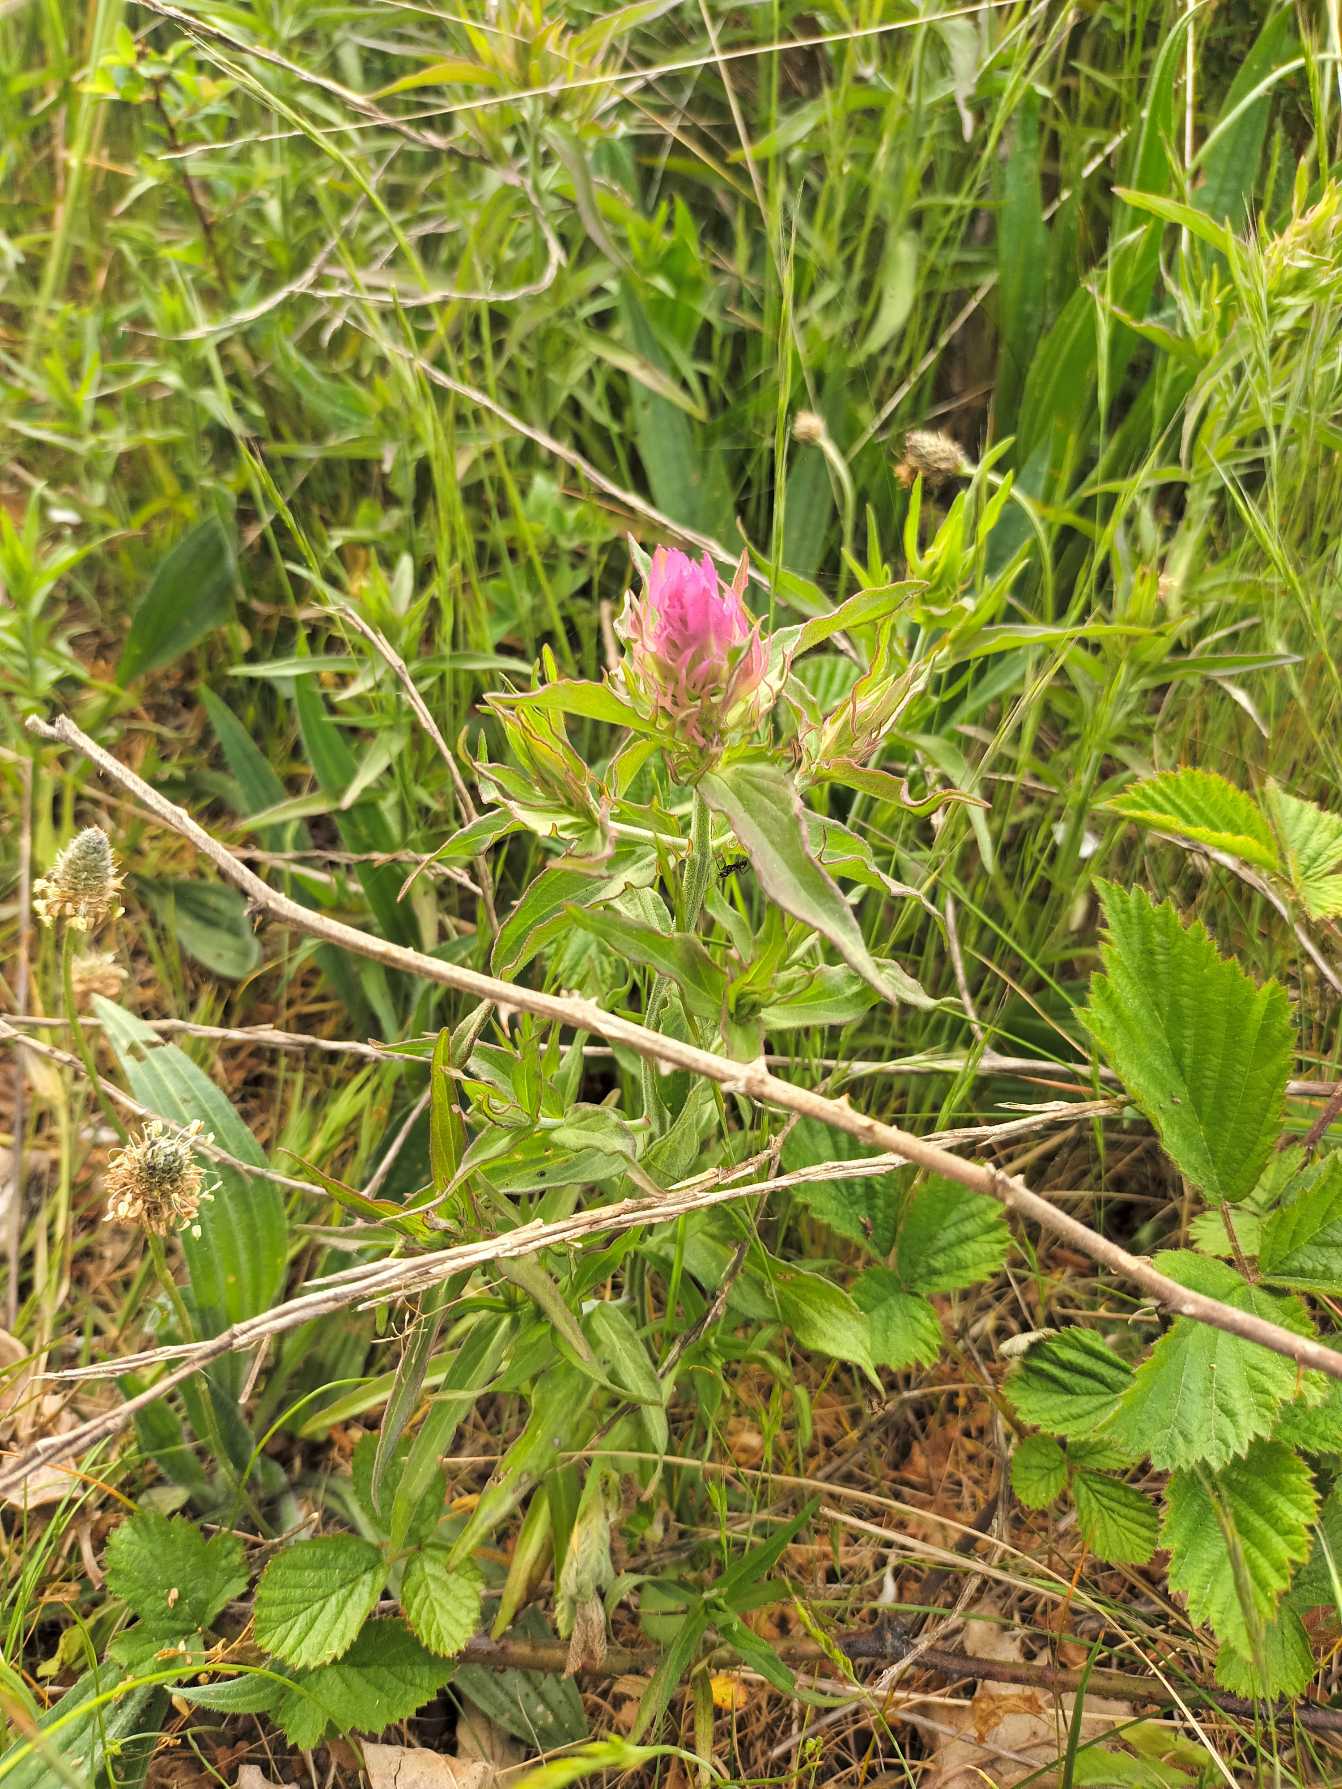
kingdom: Plantae
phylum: Tracheophyta
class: Magnoliopsida
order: Lamiales
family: Orobanchaceae
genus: Melampyrum
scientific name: Melampyrum arvense
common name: Ager-kohvede
